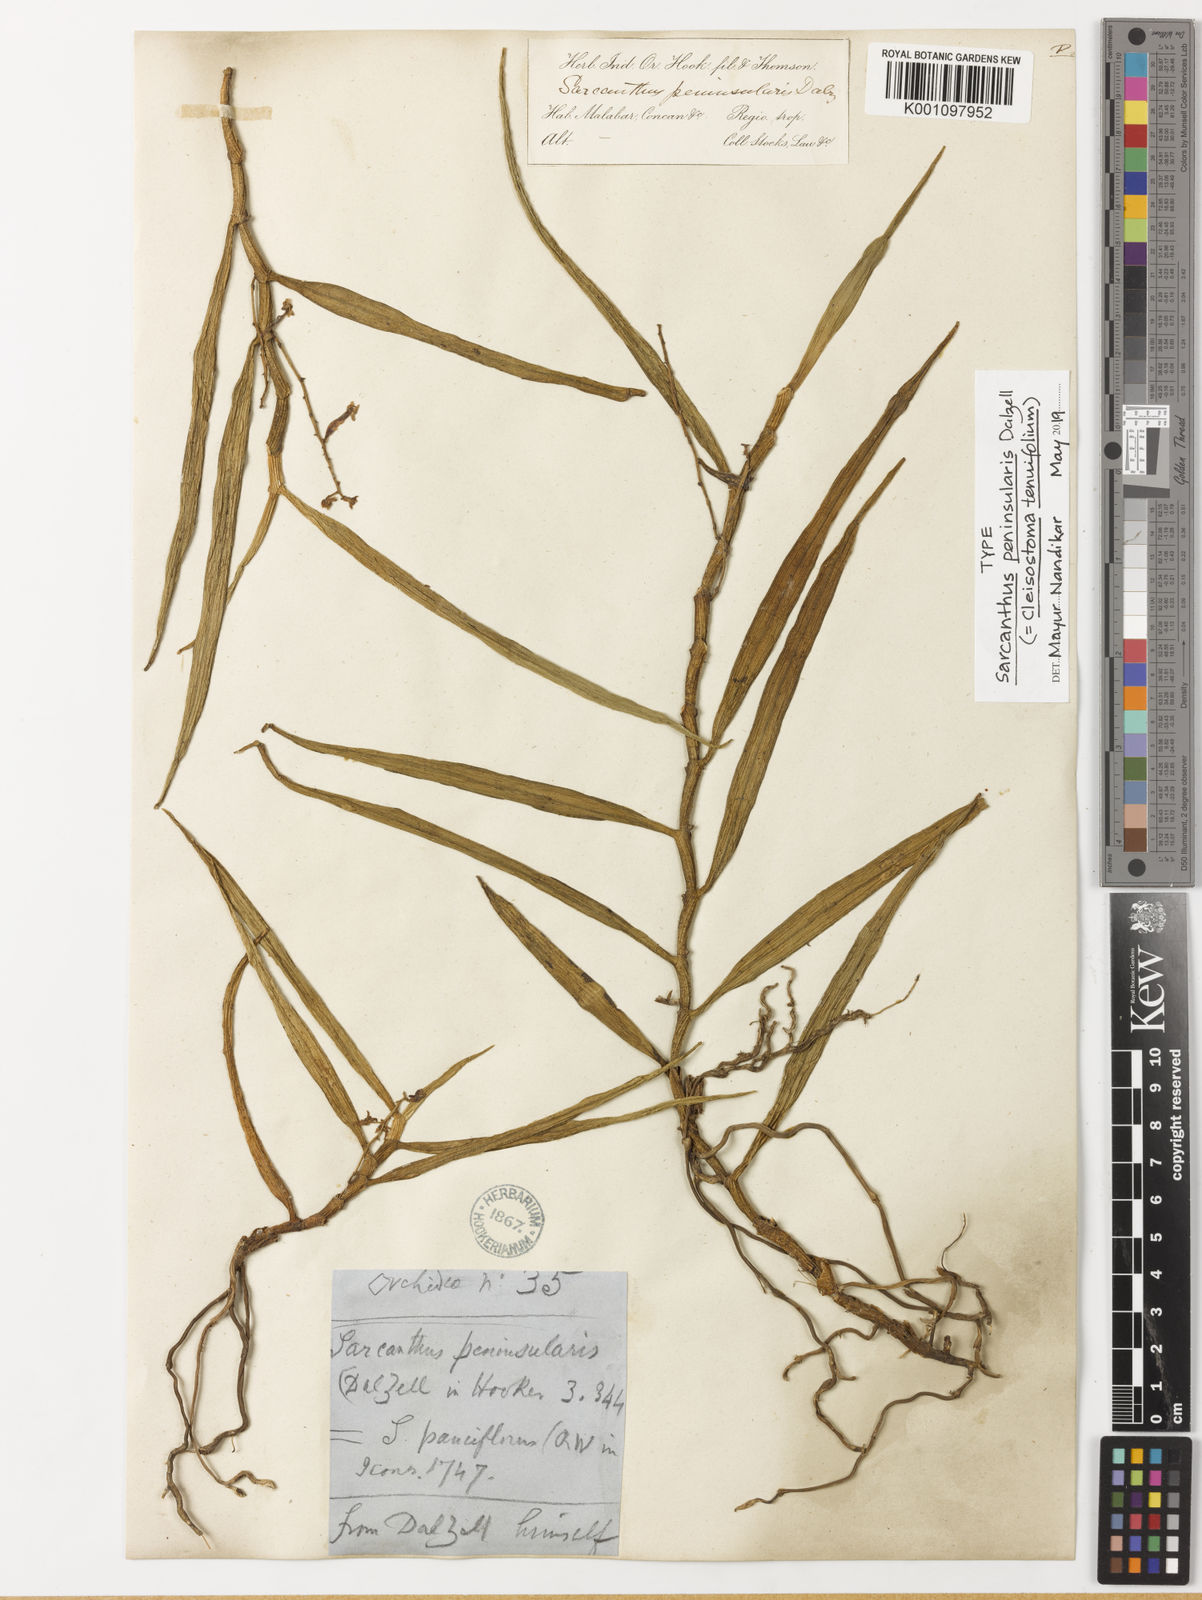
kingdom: Plantae
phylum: Tracheophyta
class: Liliopsida
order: Asparagales
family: Orchidaceae
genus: Cleisostoma
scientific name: Cleisostoma tenuifolium
